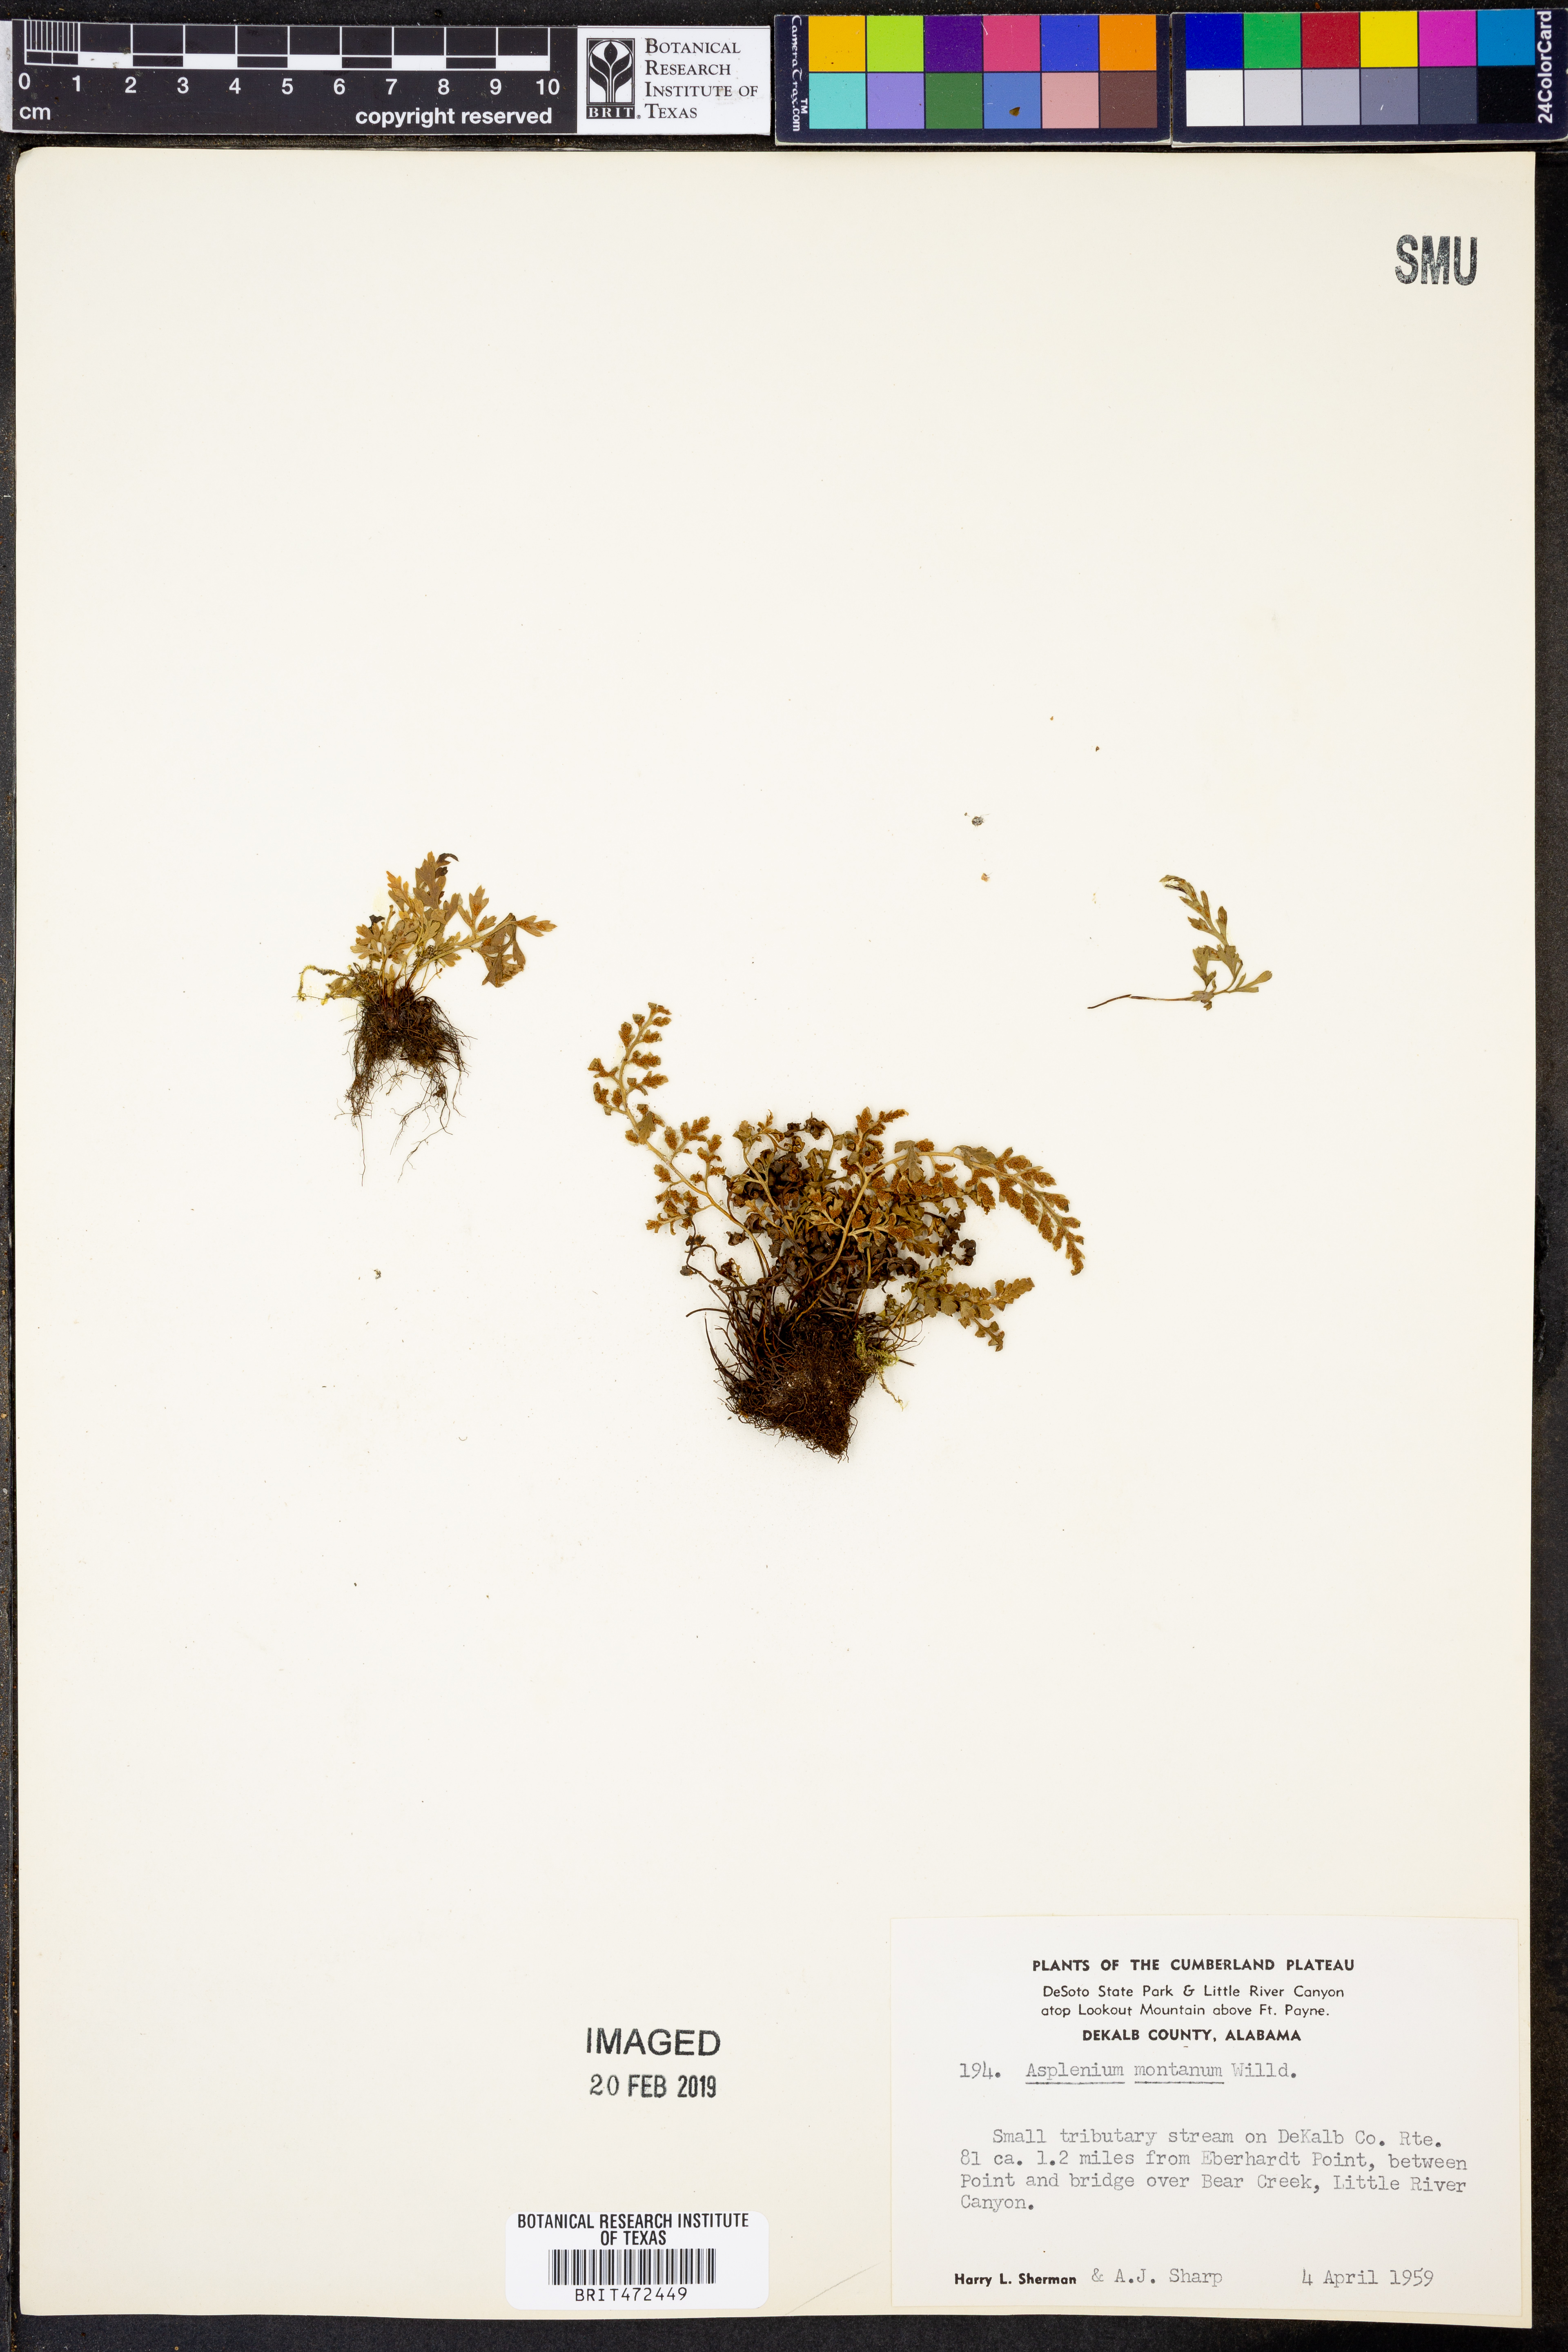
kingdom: Plantae
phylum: Tracheophyta
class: Polypodiopsida
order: Polypodiales
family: Aspleniaceae
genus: Asplenium
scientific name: Asplenium montanum
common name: Mountain spleenwort
